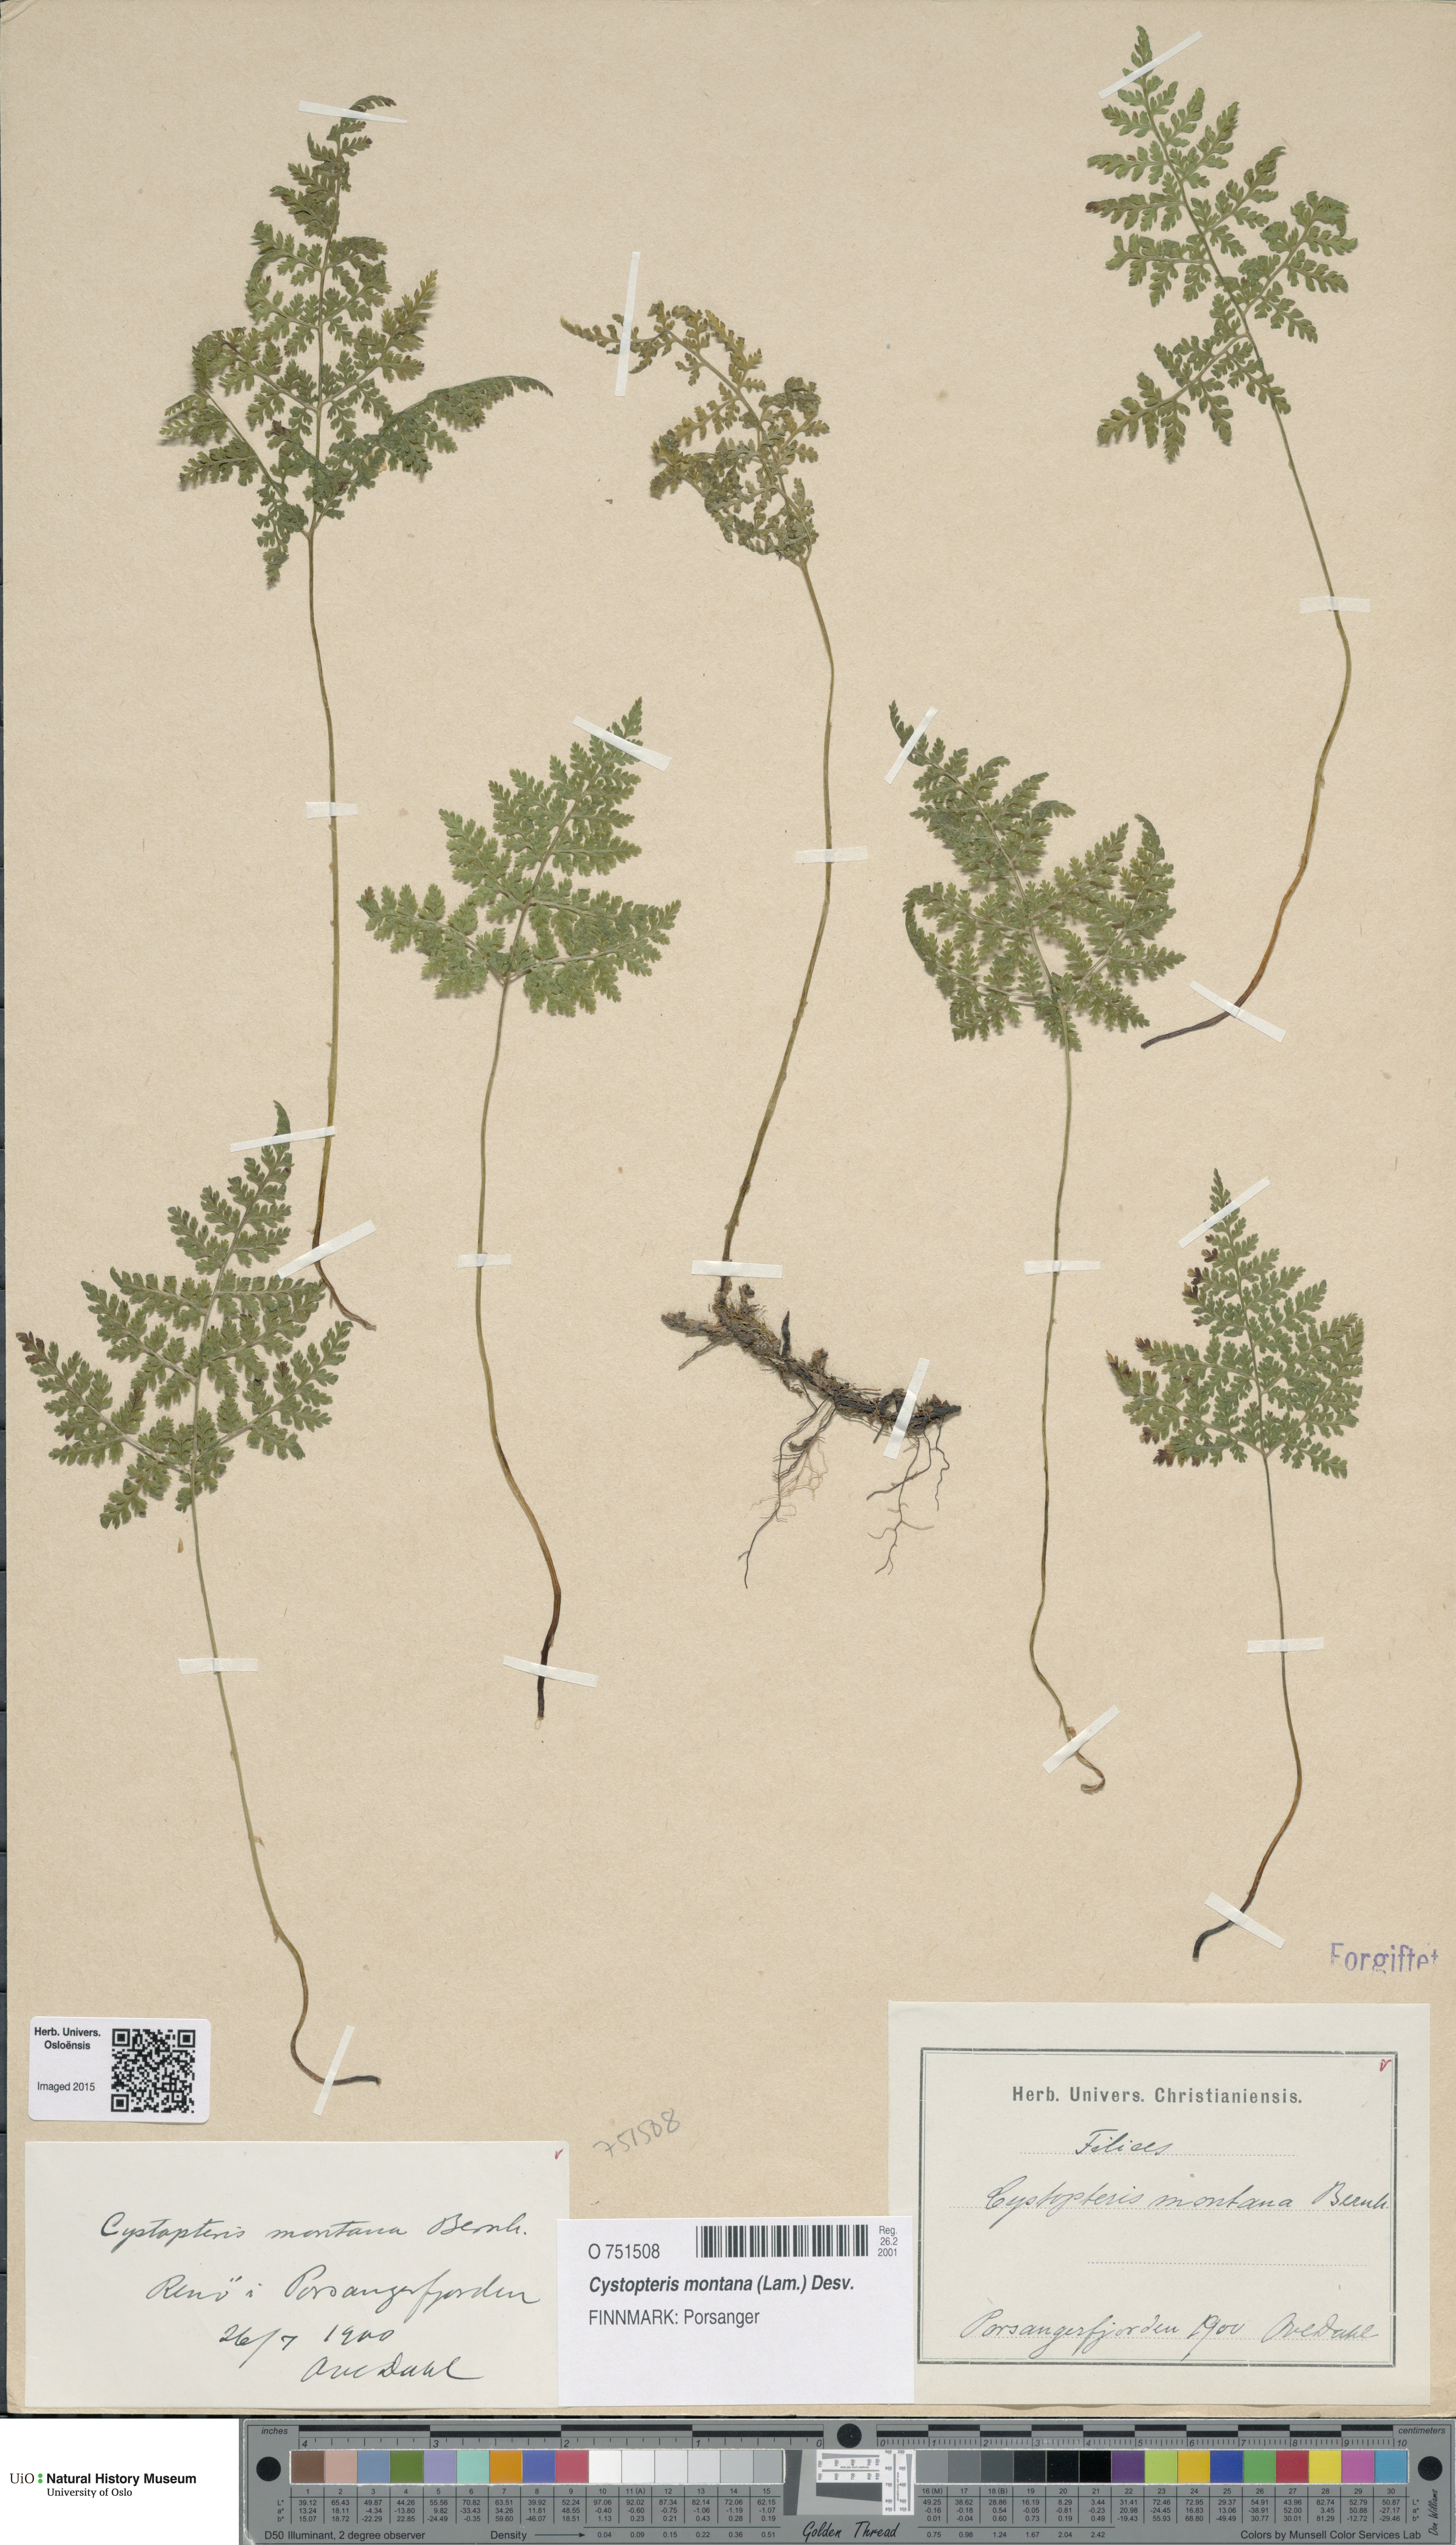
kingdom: Plantae
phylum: Tracheophyta
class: Polypodiopsida
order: Polypodiales
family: Cystopteridaceae
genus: Cystopteris
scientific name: Cystopteris montana
